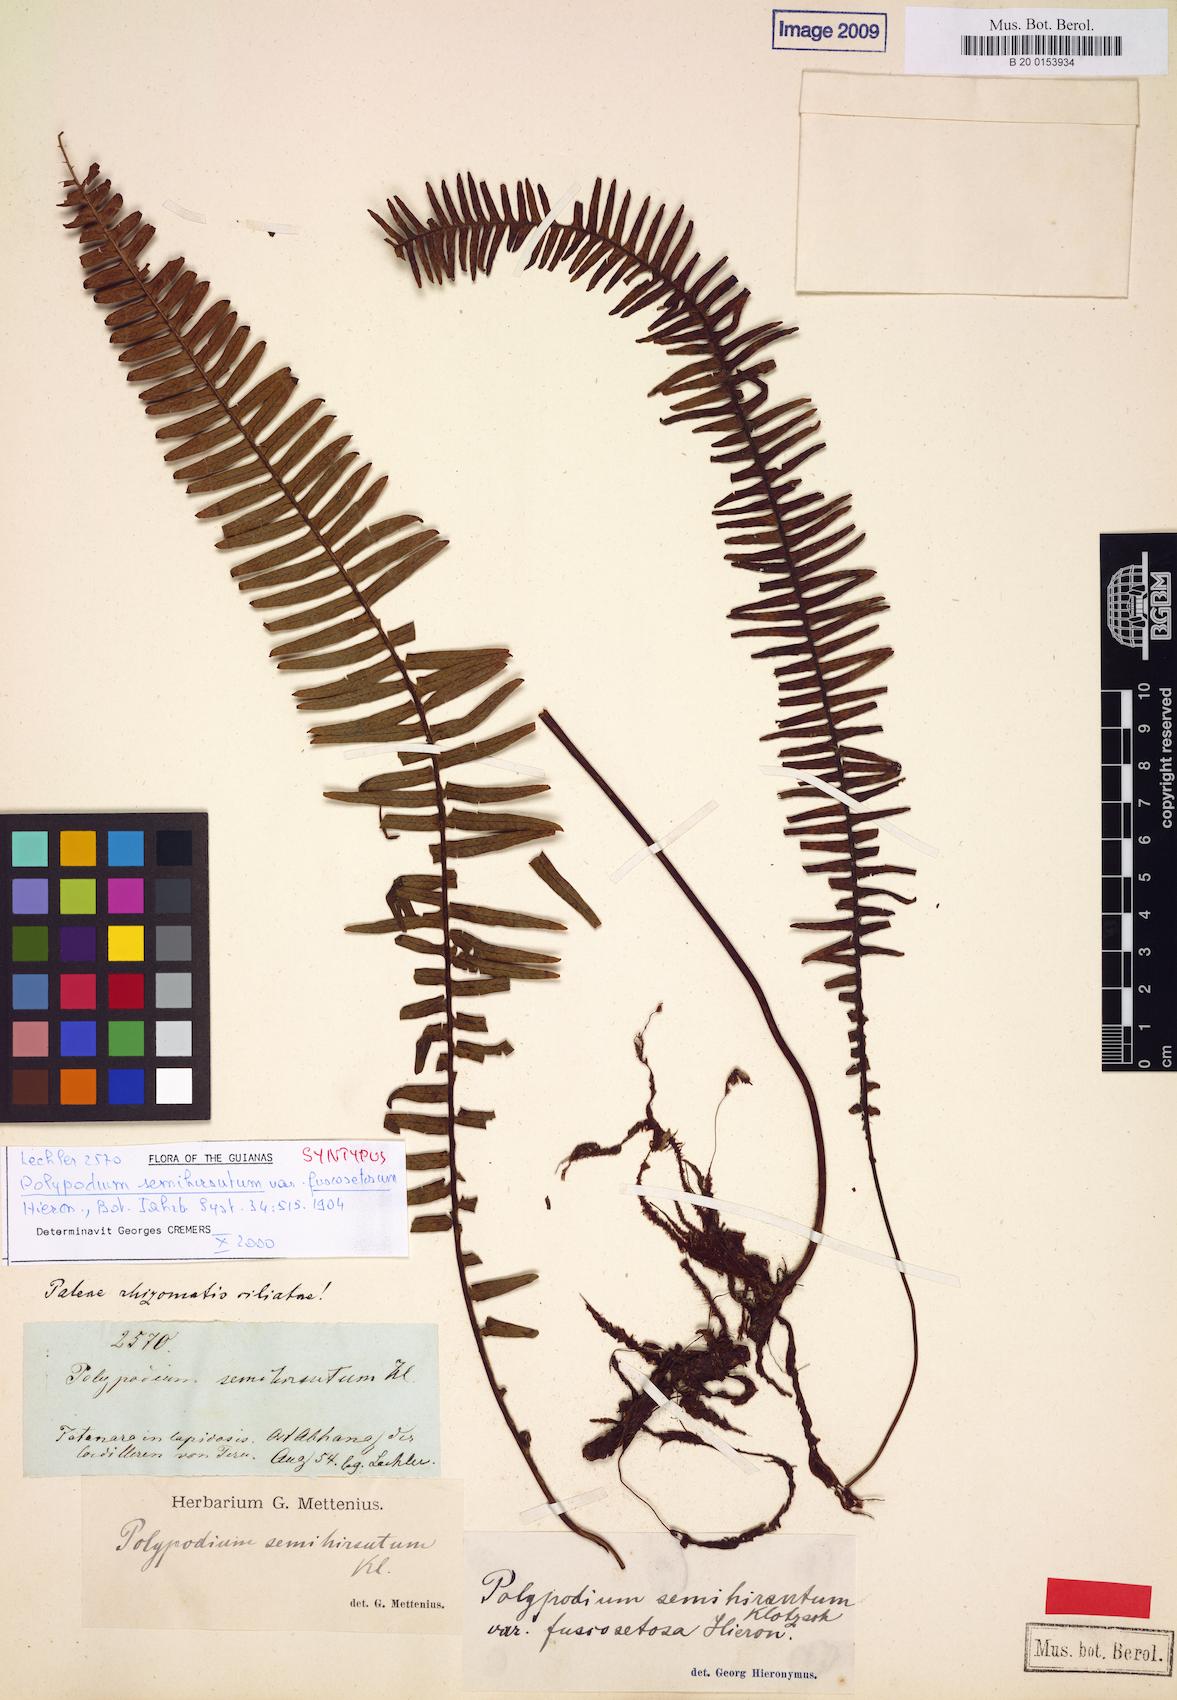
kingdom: Plantae
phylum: Tracheophyta
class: Polypodiopsida
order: Polypodiales
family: Polypodiaceae
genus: Mycopteris
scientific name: Mycopteris semihirsuta
